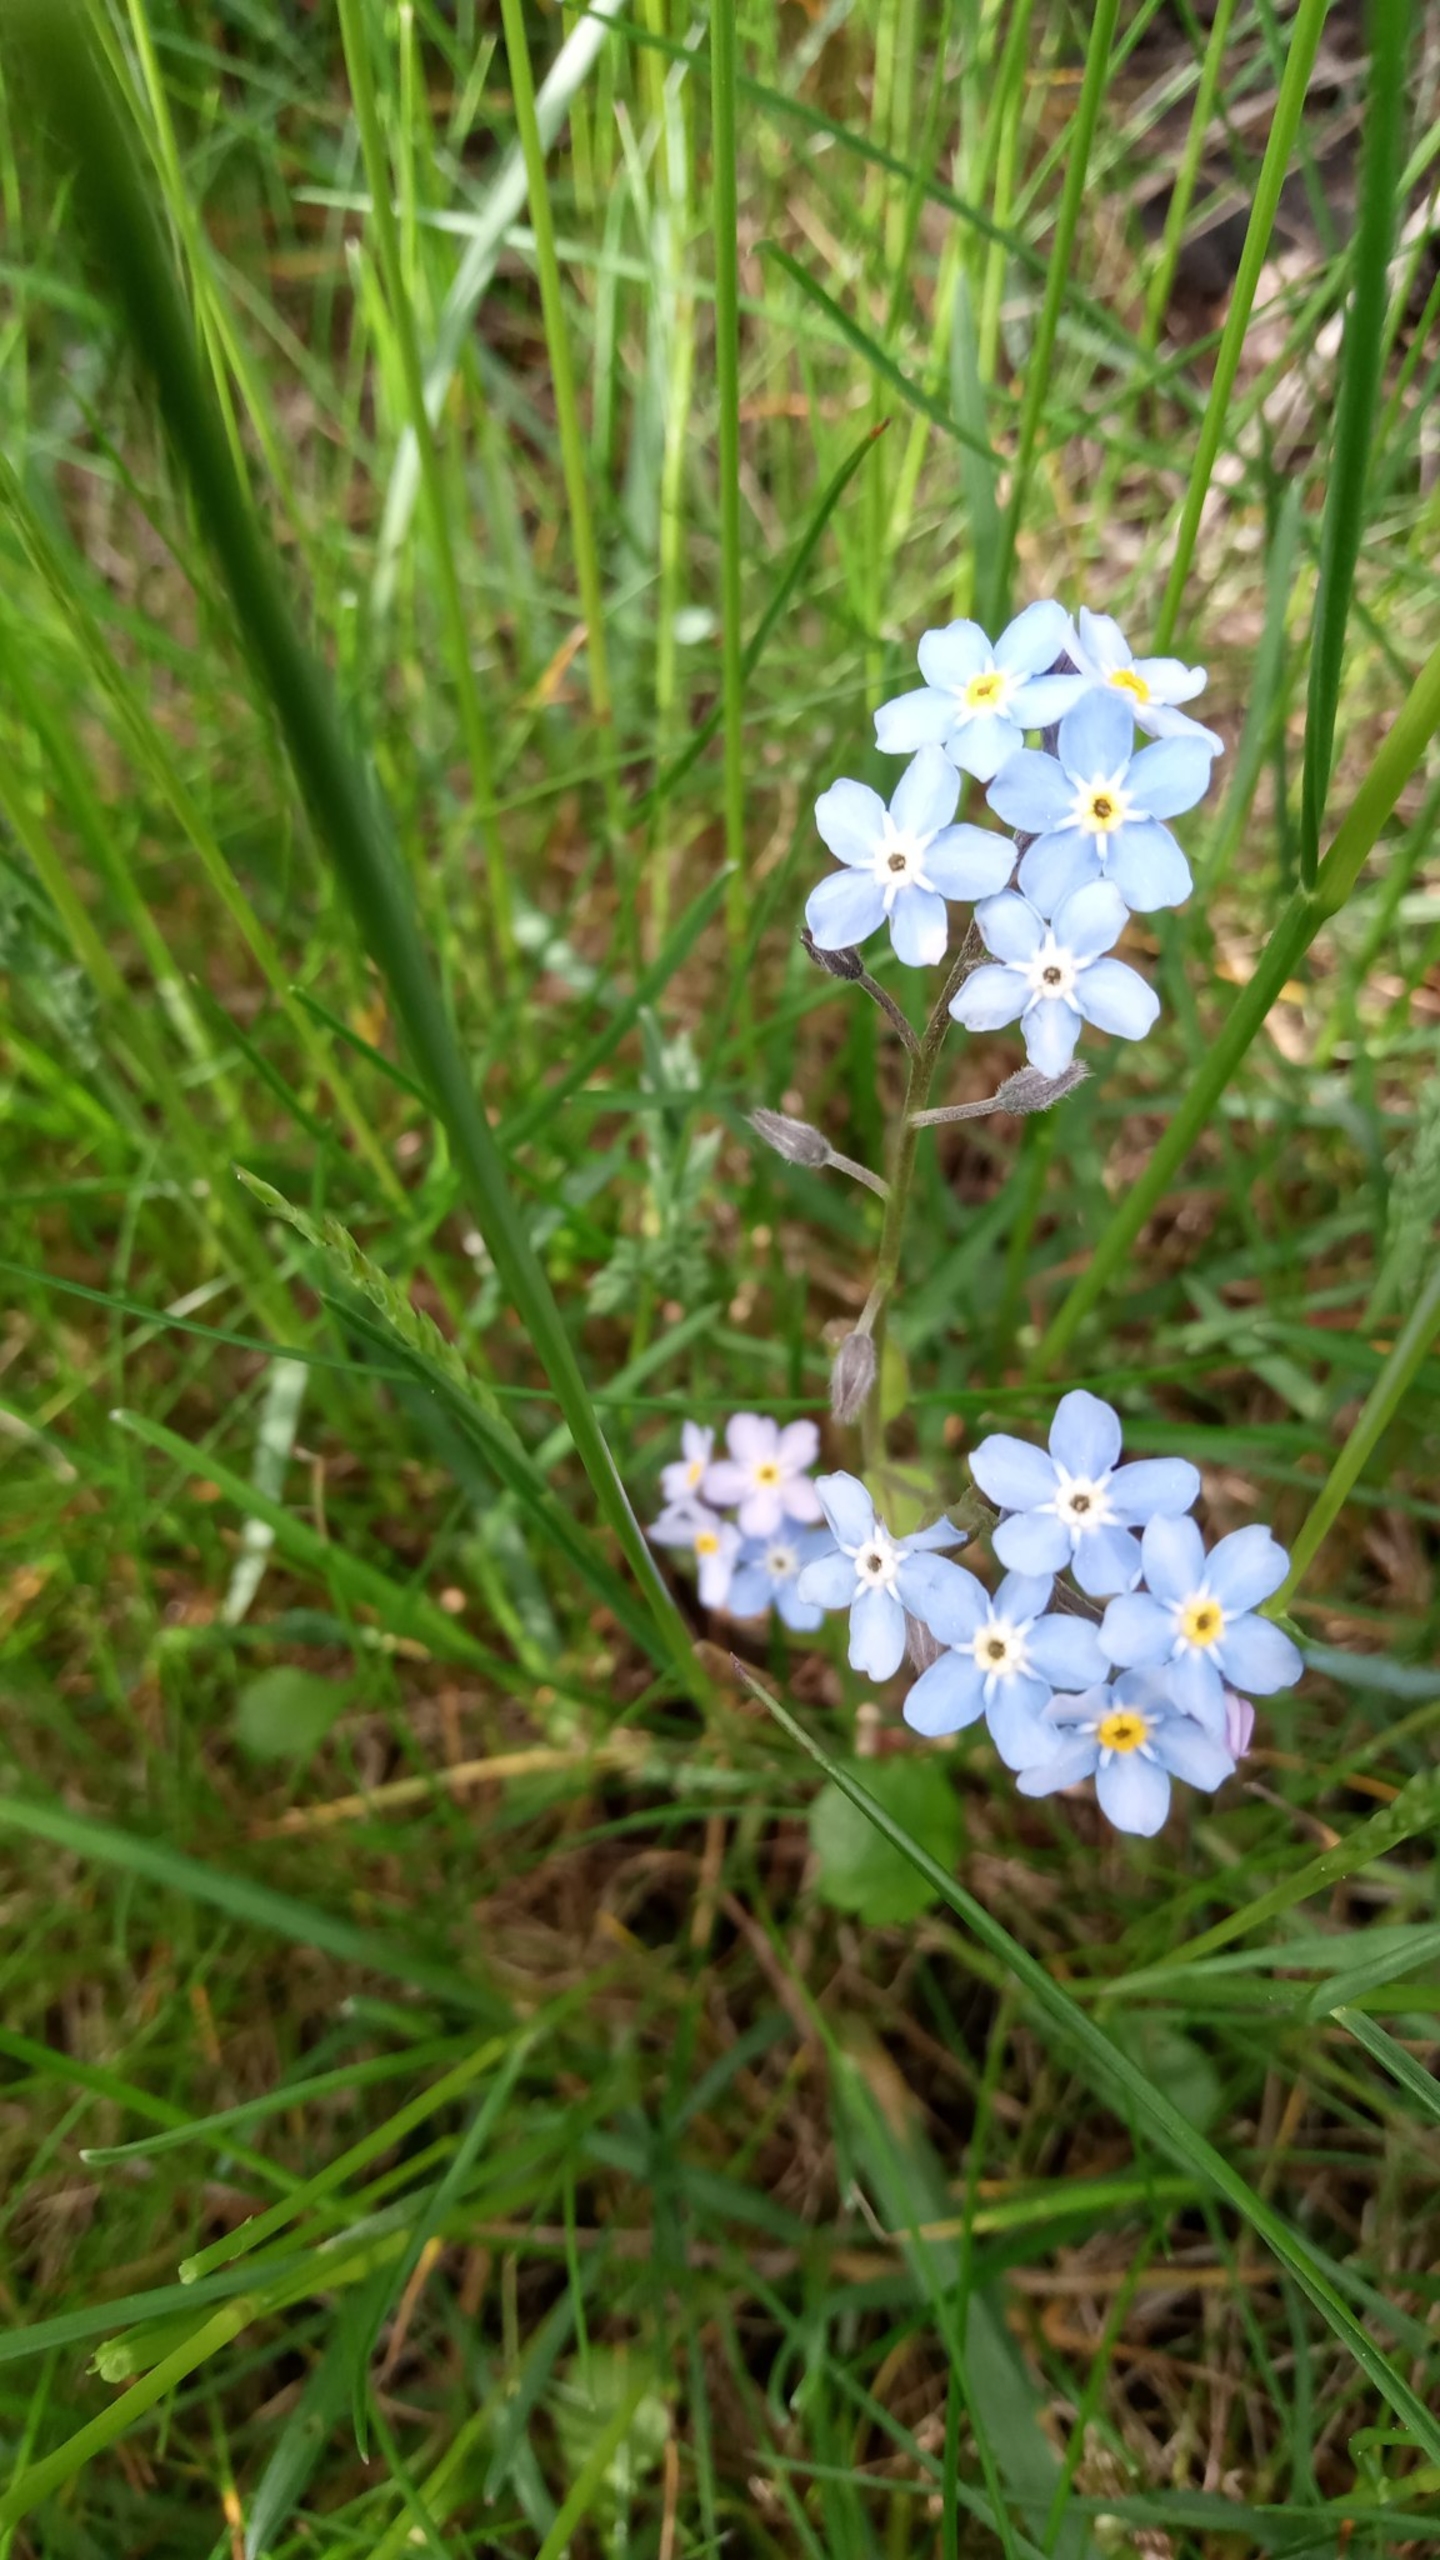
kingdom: Plantae
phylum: Tracheophyta
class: Magnoliopsida
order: Boraginales
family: Boraginaceae
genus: Myosotis
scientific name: Myosotis sylvatica
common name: Skov-forglemmigej
